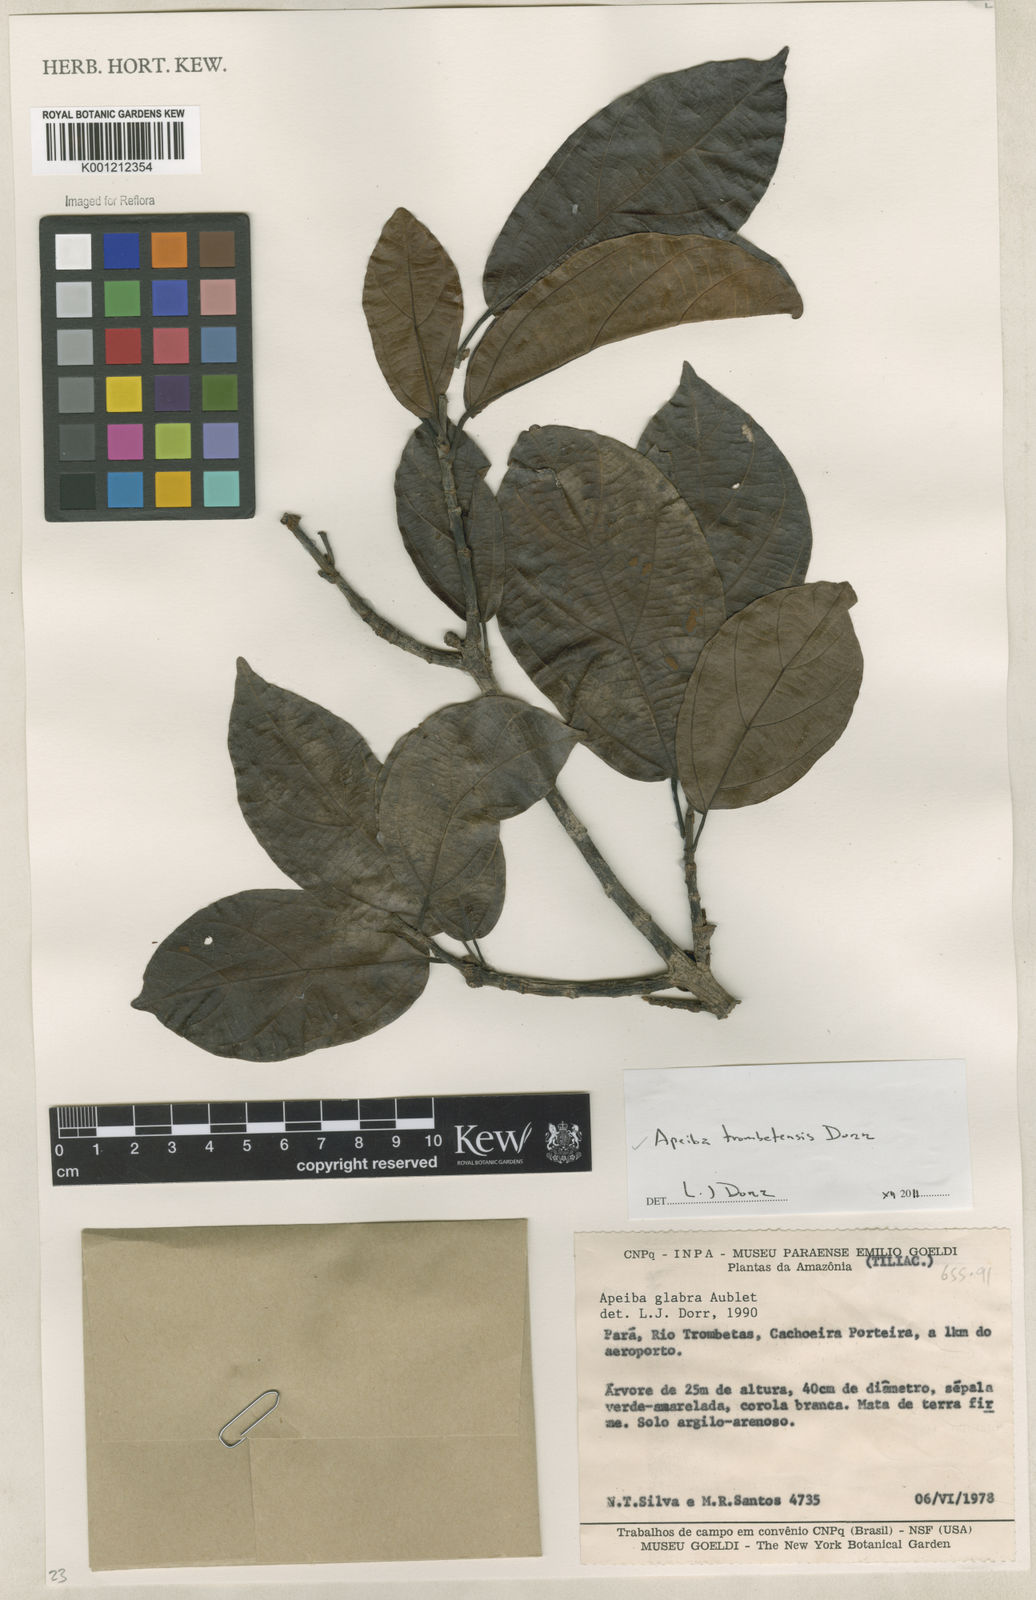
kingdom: Plantae
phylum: Tracheophyta
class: Magnoliopsida
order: Malvales
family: Malvaceae
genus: Apeiba
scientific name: Apeiba trombetensis
